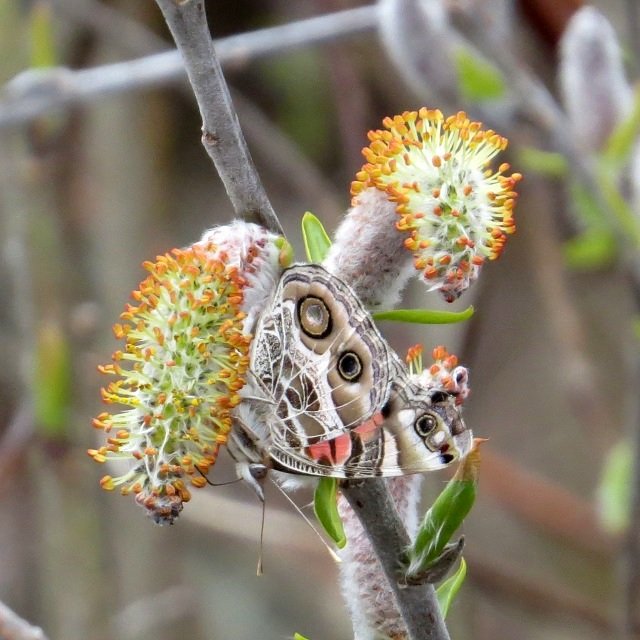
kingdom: Animalia
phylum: Arthropoda
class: Insecta
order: Lepidoptera
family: Nymphalidae
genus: Vanessa
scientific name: Vanessa virginiensis
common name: American Lady
